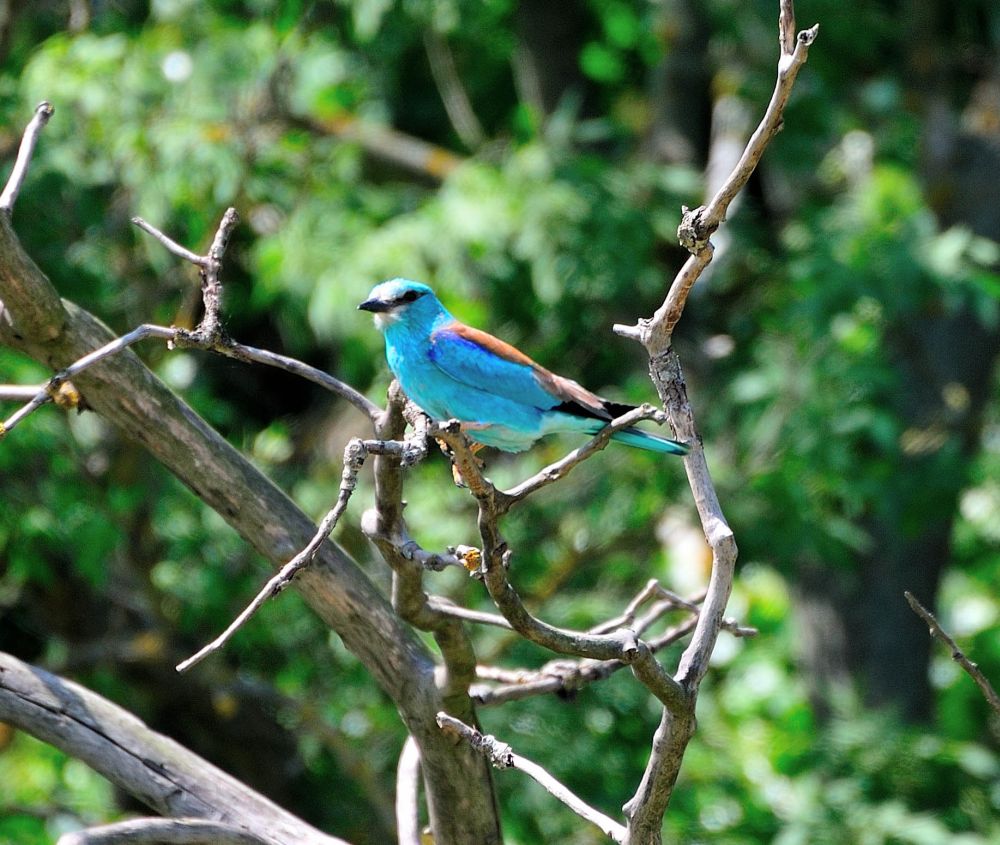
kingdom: Animalia
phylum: Chordata
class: Aves
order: Coraciiformes
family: Coraciidae
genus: Coracias
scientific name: Coracias garrulus
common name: European roller
